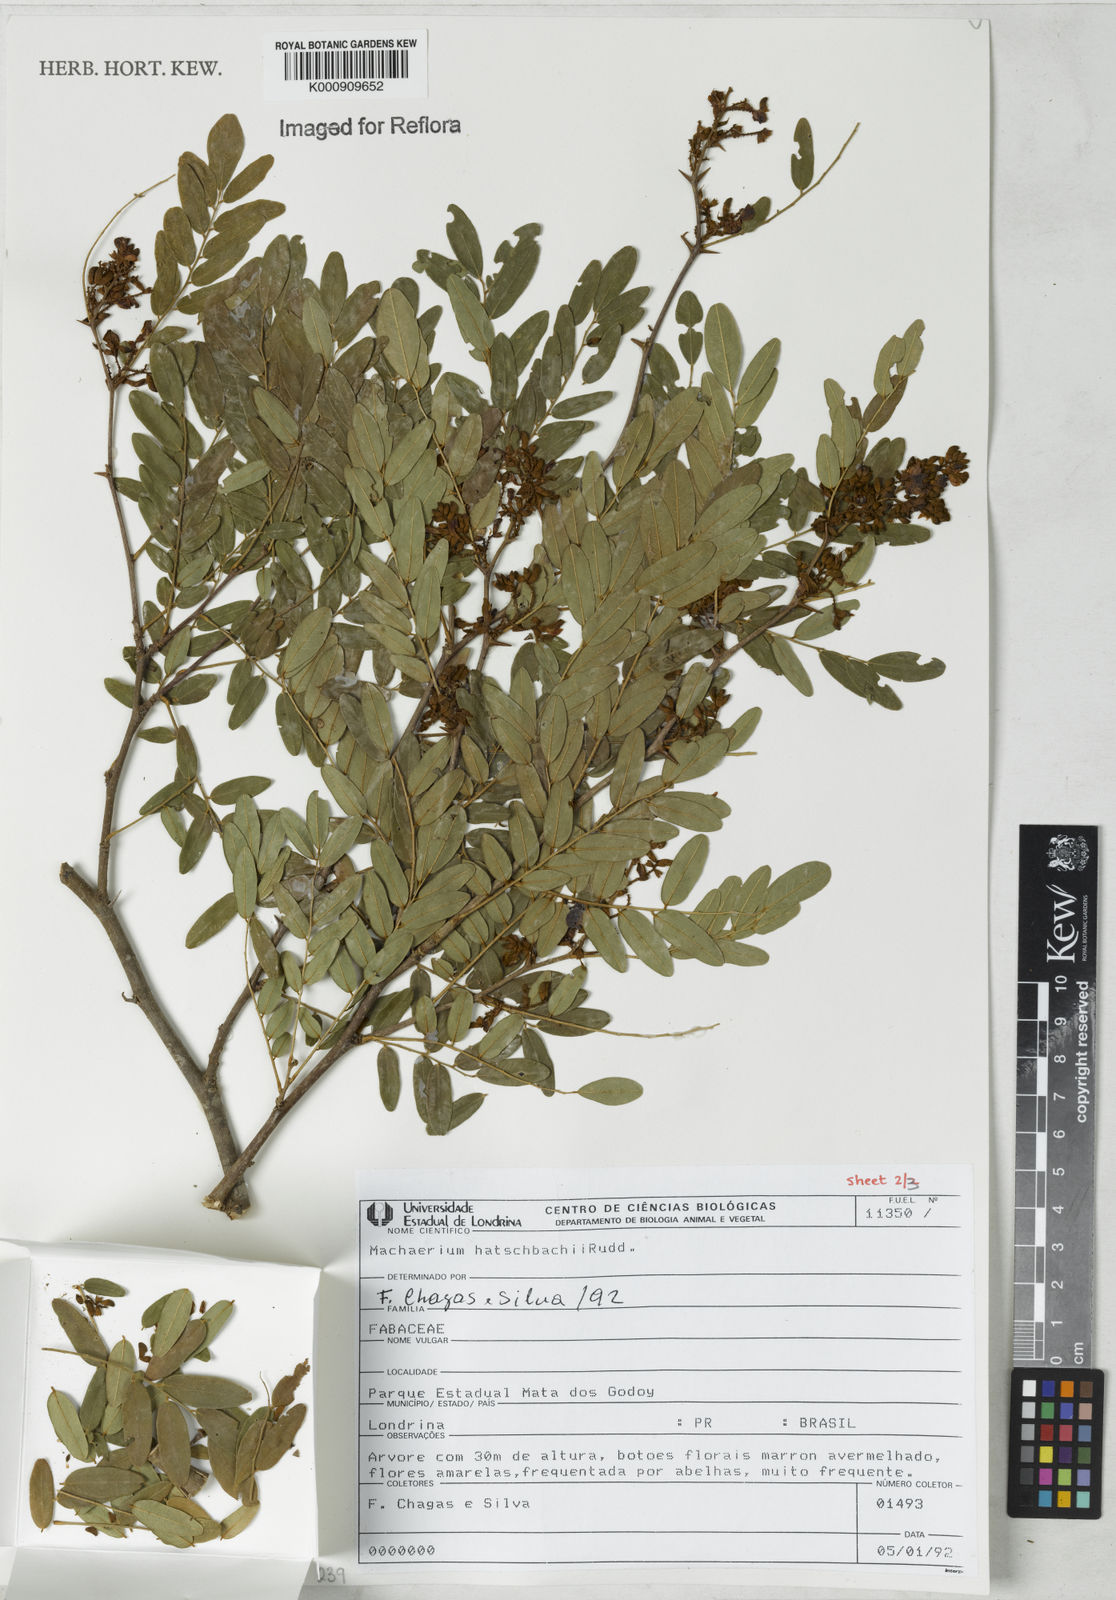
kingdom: Plantae
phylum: Tracheophyta
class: Magnoliopsida
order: Fabales
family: Fabaceae
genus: Machaerium
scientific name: Machaerium hatschbachii
